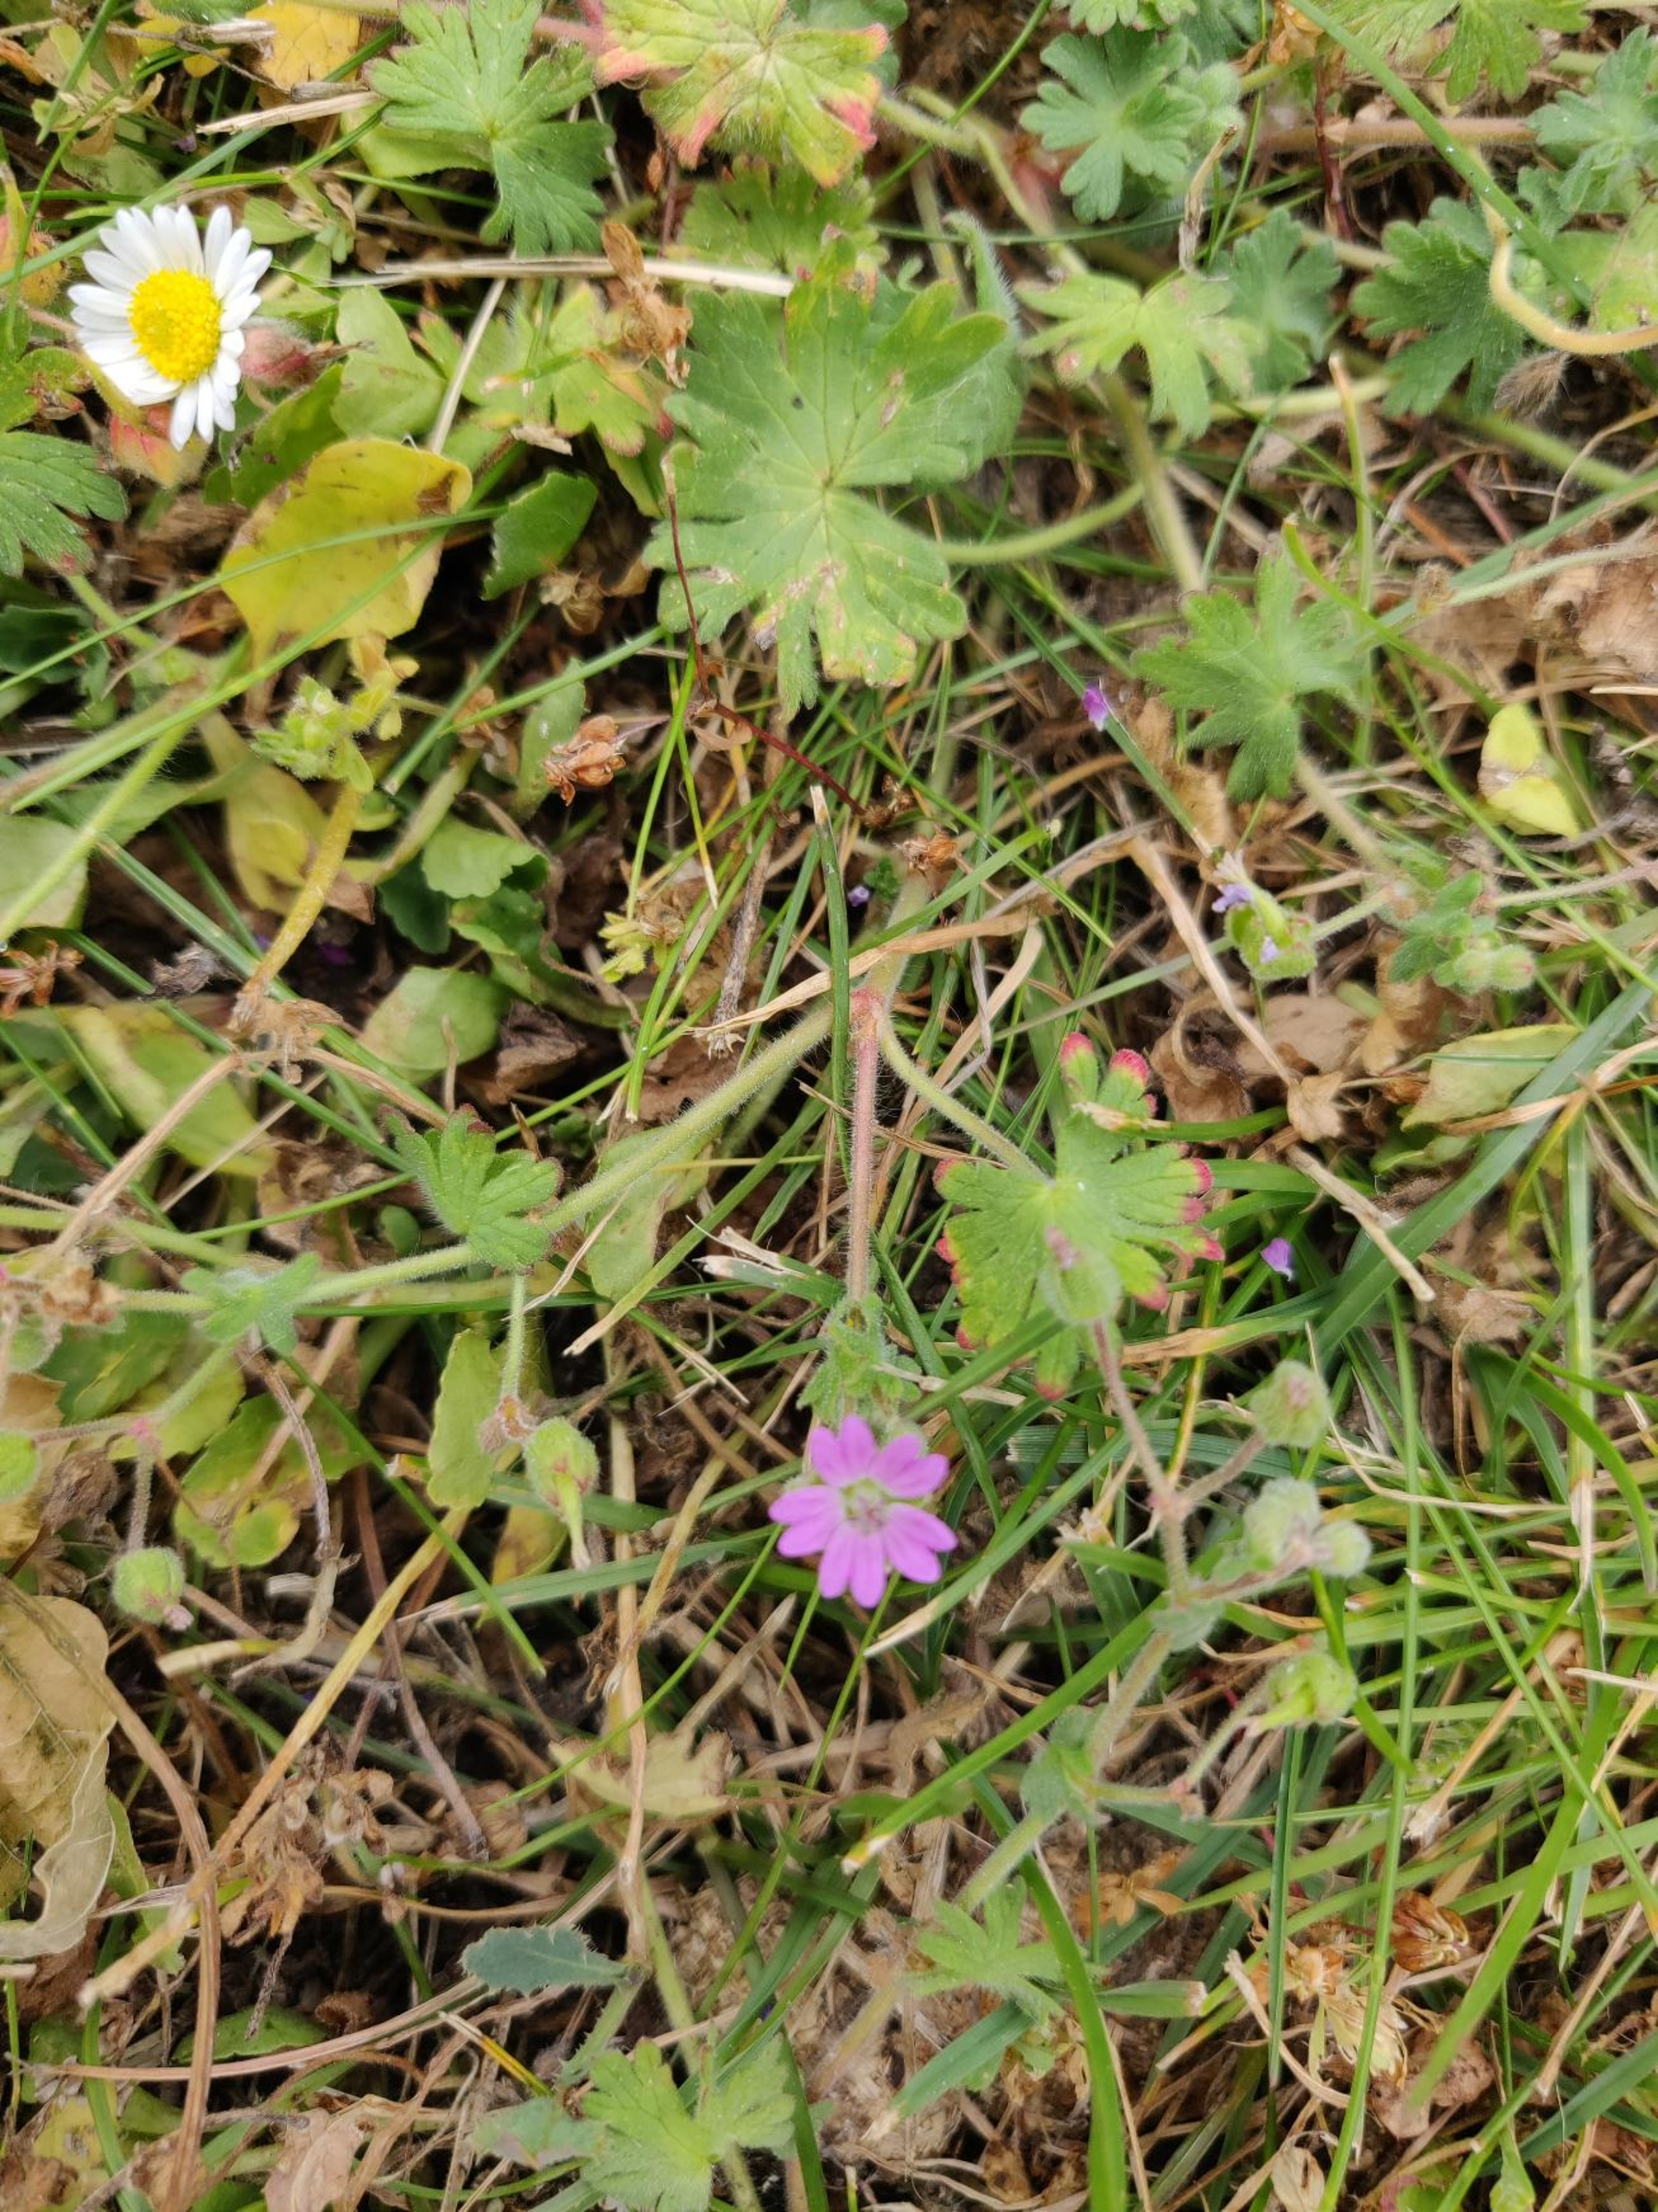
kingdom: Plantae
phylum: Tracheophyta
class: Magnoliopsida
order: Geraniales
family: Geraniaceae
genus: Geranium
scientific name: Geranium molle
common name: Blød storkenæb
